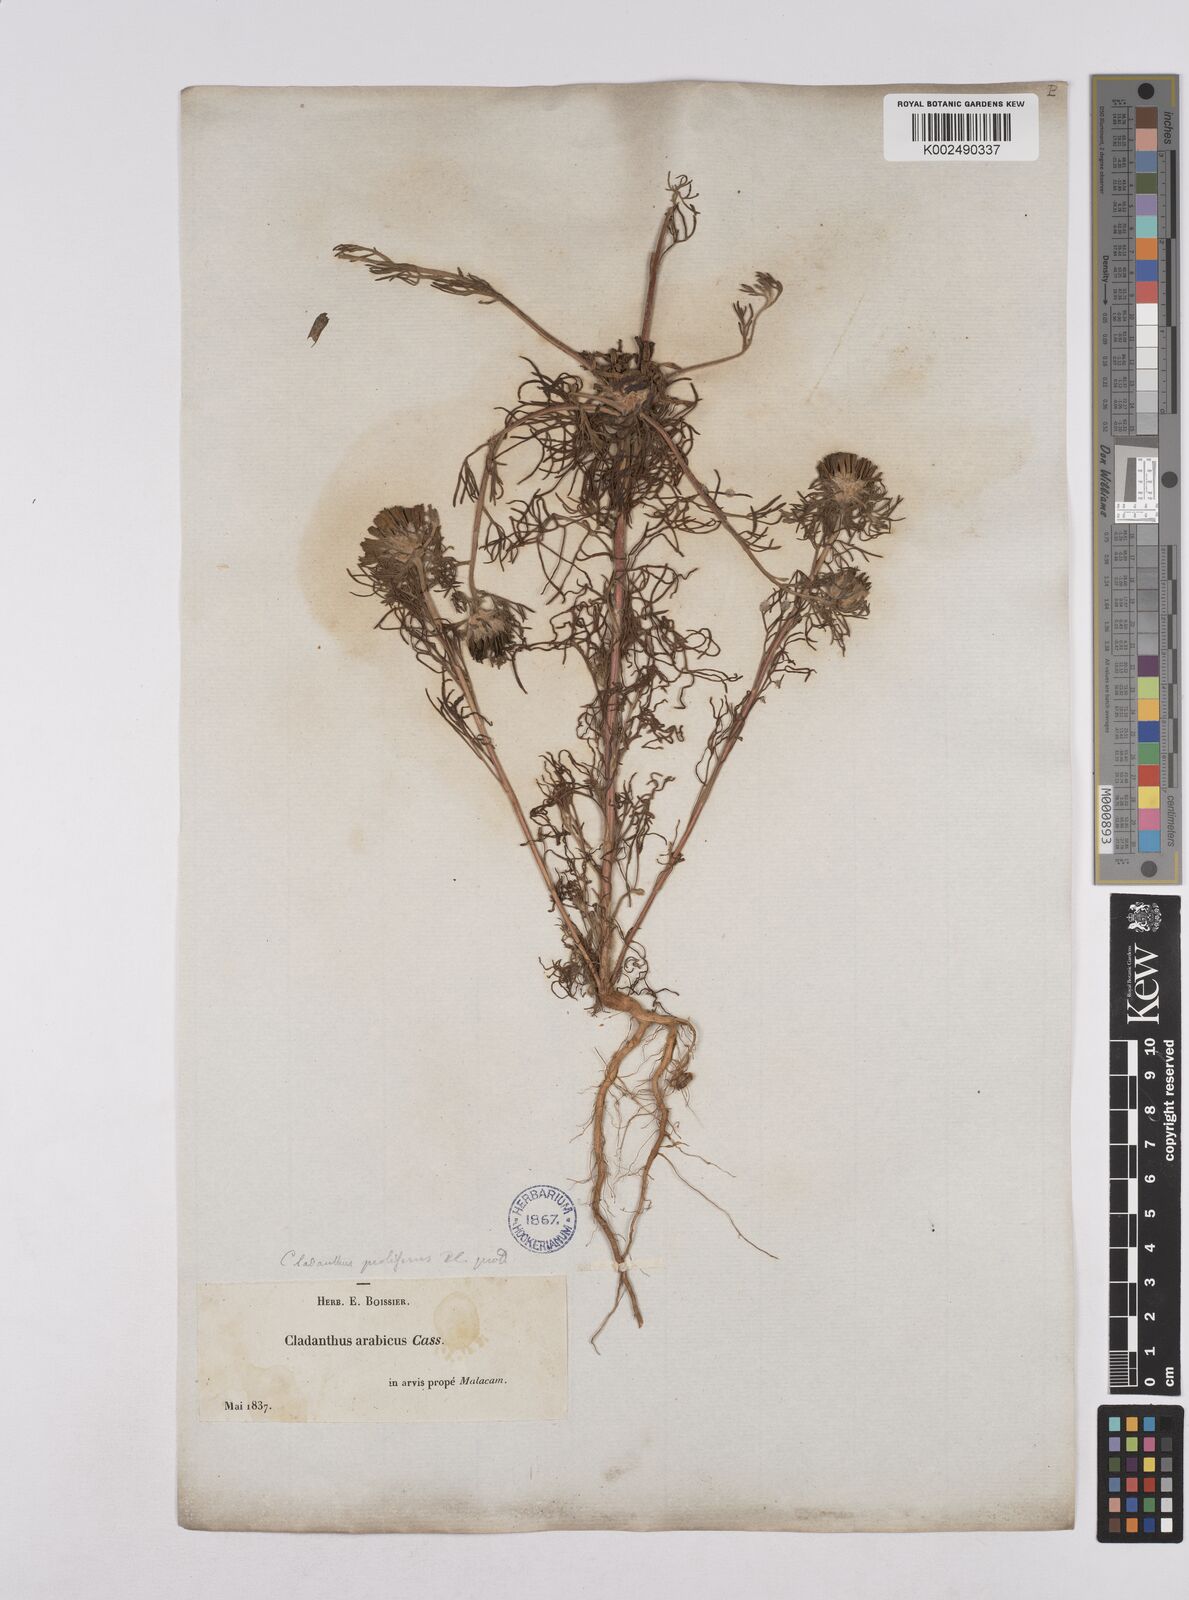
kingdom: Plantae
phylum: Tracheophyta
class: Magnoliopsida
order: Asterales
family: Asteraceae
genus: Cladanthus
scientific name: Cladanthus arabicus
